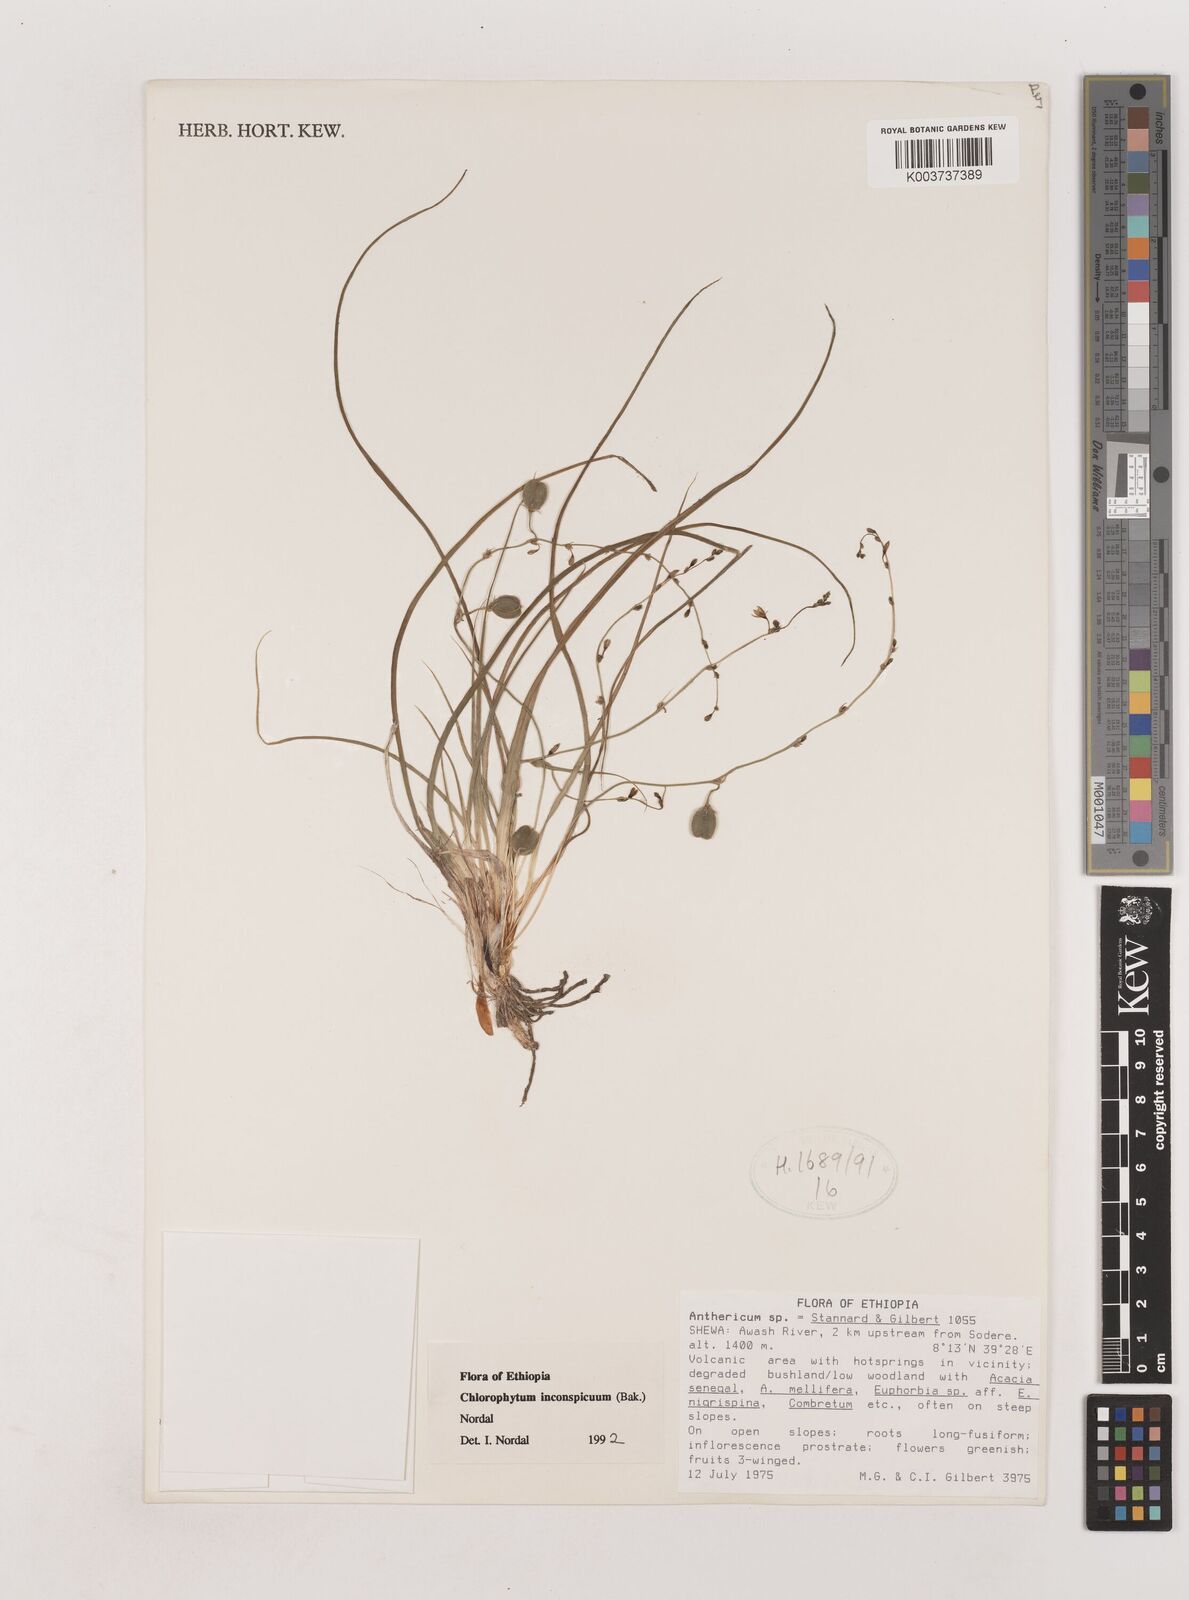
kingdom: Plantae
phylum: Tracheophyta
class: Liliopsida
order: Asparagales
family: Asparagaceae
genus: Chlorophytum
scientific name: Chlorophytum inconspicuum
